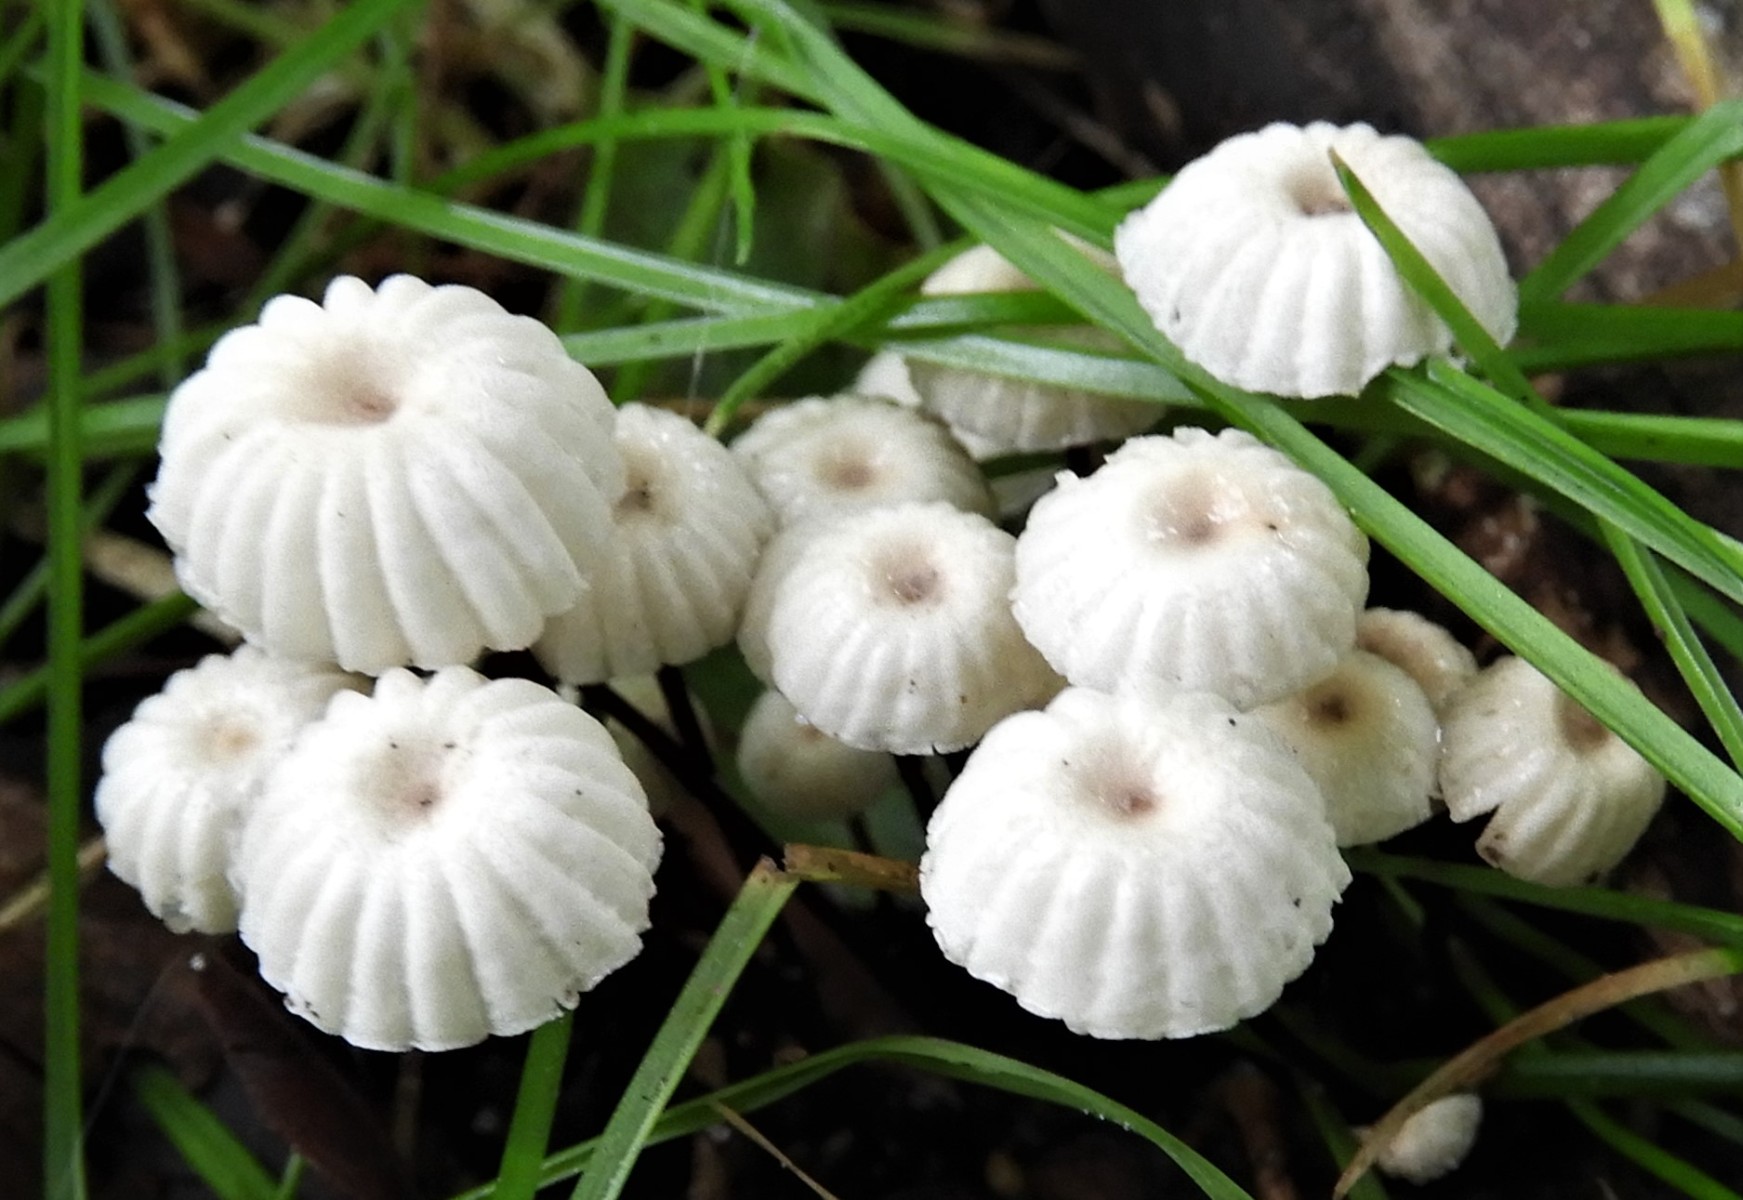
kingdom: Fungi
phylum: Basidiomycota
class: Agaricomycetes
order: Agaricales
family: Marasmiaceae
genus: Marasmius
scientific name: Marasmius rotula
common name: hjul-bruskhat
